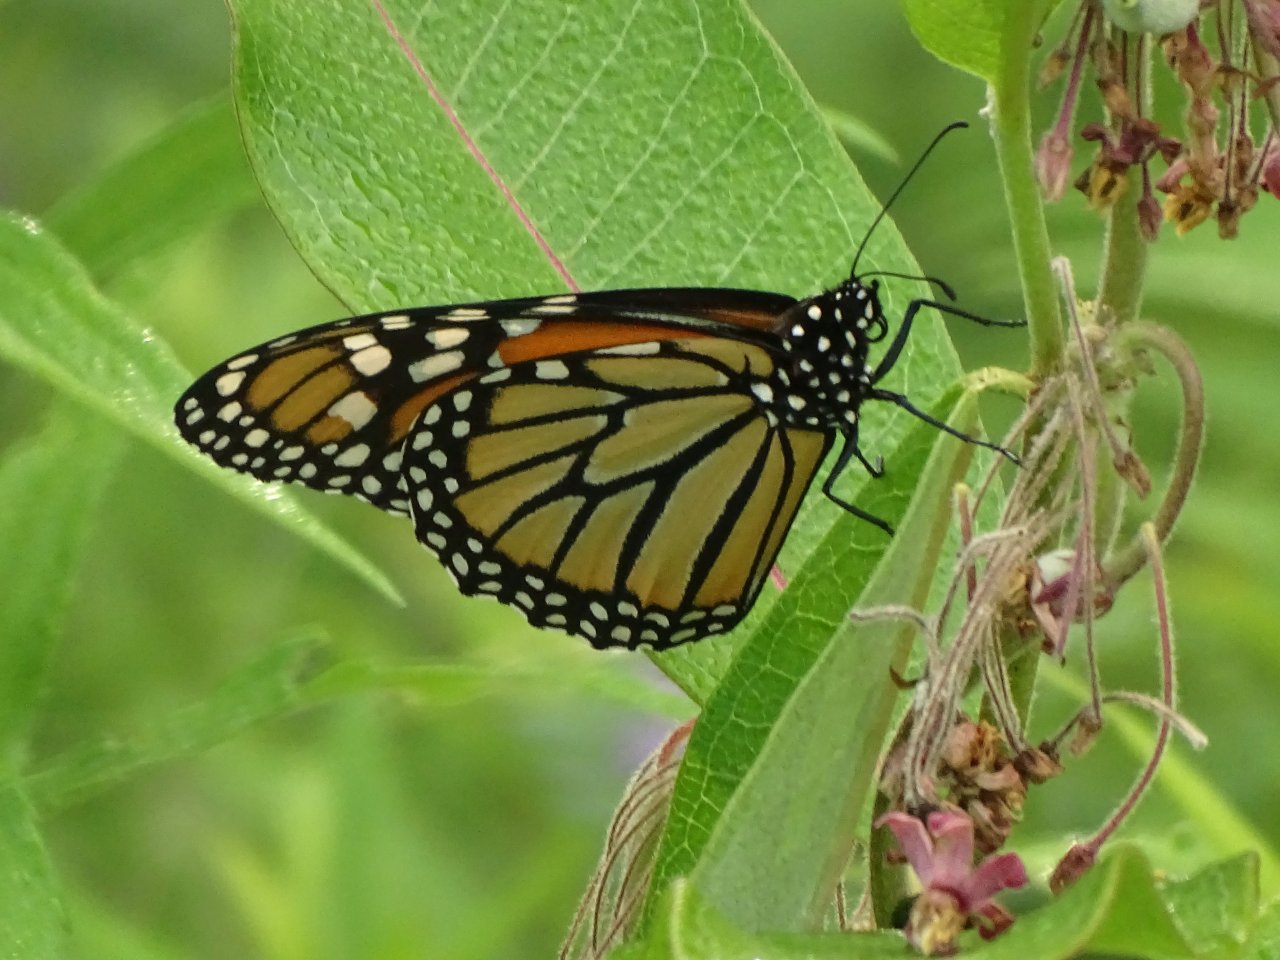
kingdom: Animalia
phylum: Arthropoda
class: Insecta
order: Lepidoptera
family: Nymphalidae
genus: Danaus
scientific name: Danaus plexippus
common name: Monarch
